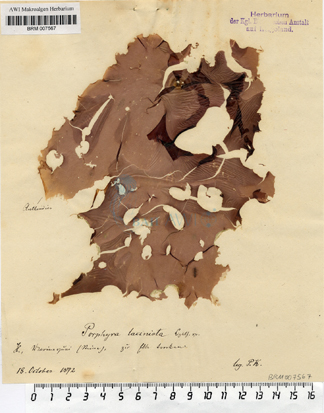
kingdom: Plantae
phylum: Rhodophyta
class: Florideophyceae
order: Ceramiales
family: Delesseriaceae
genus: Erythroglossum
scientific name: Erythroglossum laciniatum
